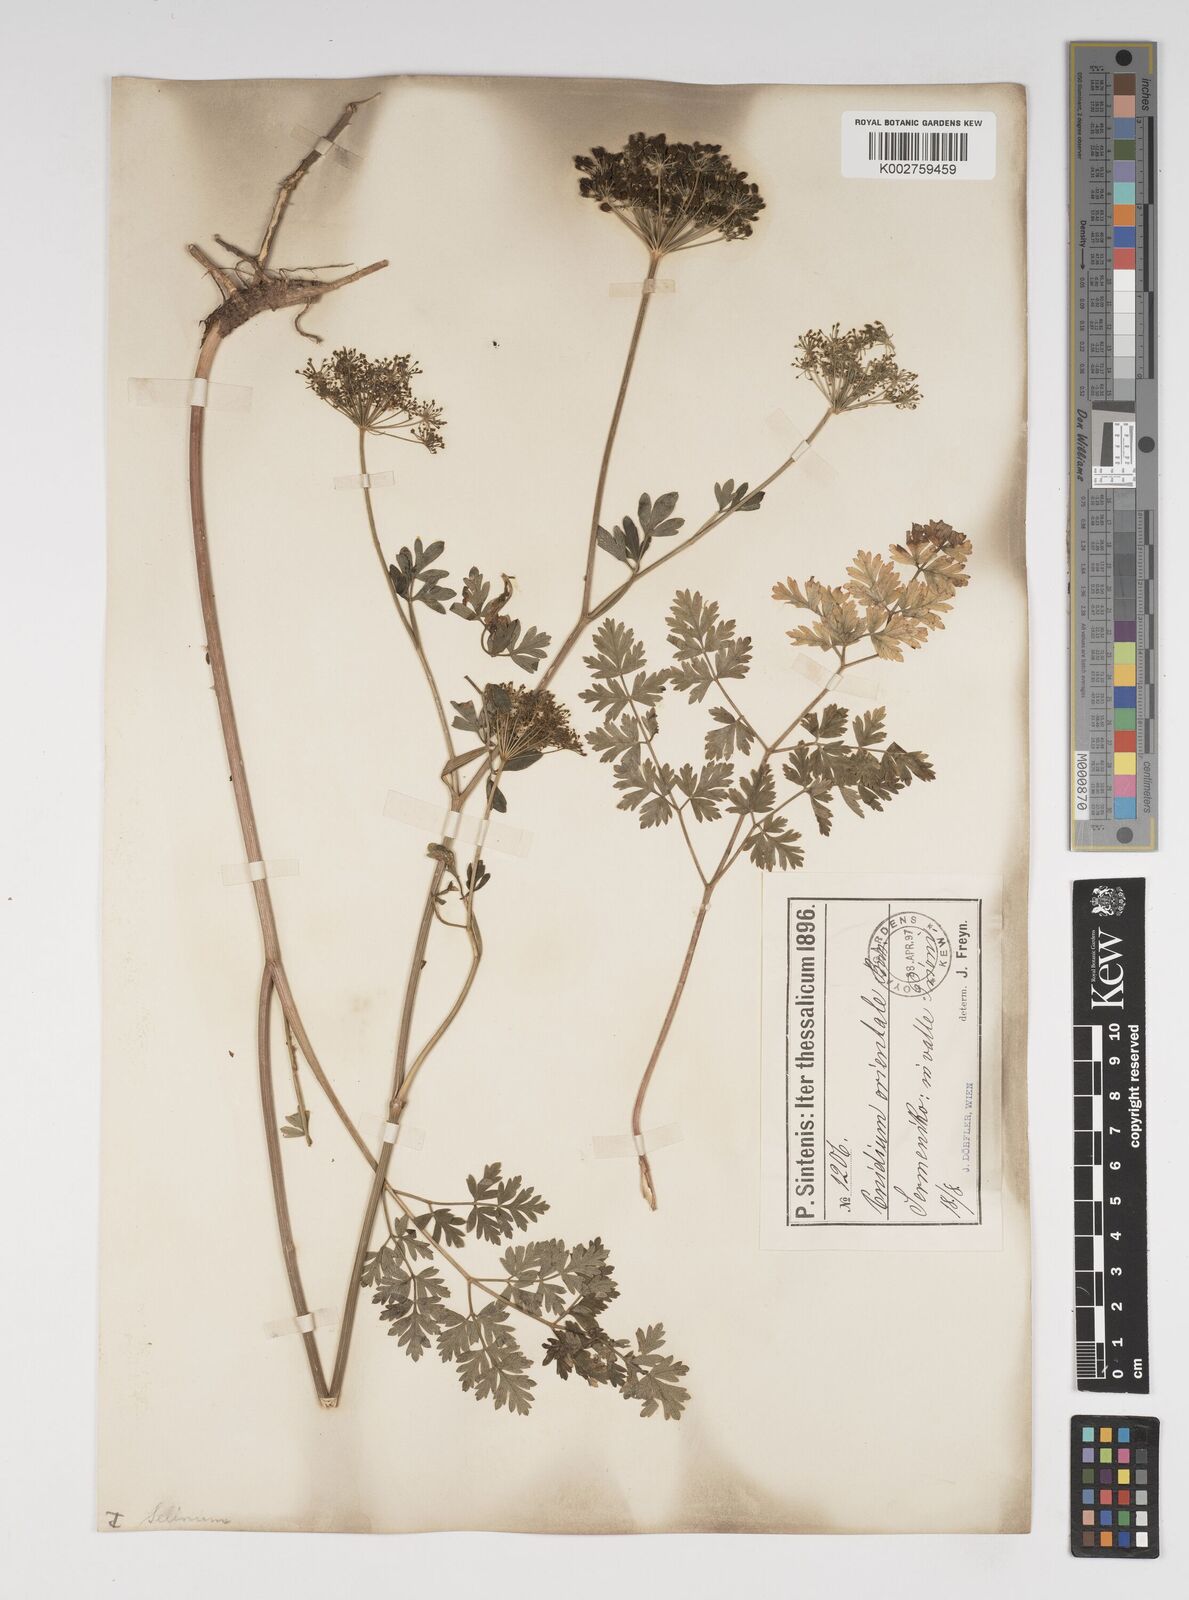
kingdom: Plantae
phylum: Tracheophyta
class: Magnoliopsida
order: Apiales
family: Apiaceae
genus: Katapsuxis
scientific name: Katapsuxis silaifolia
